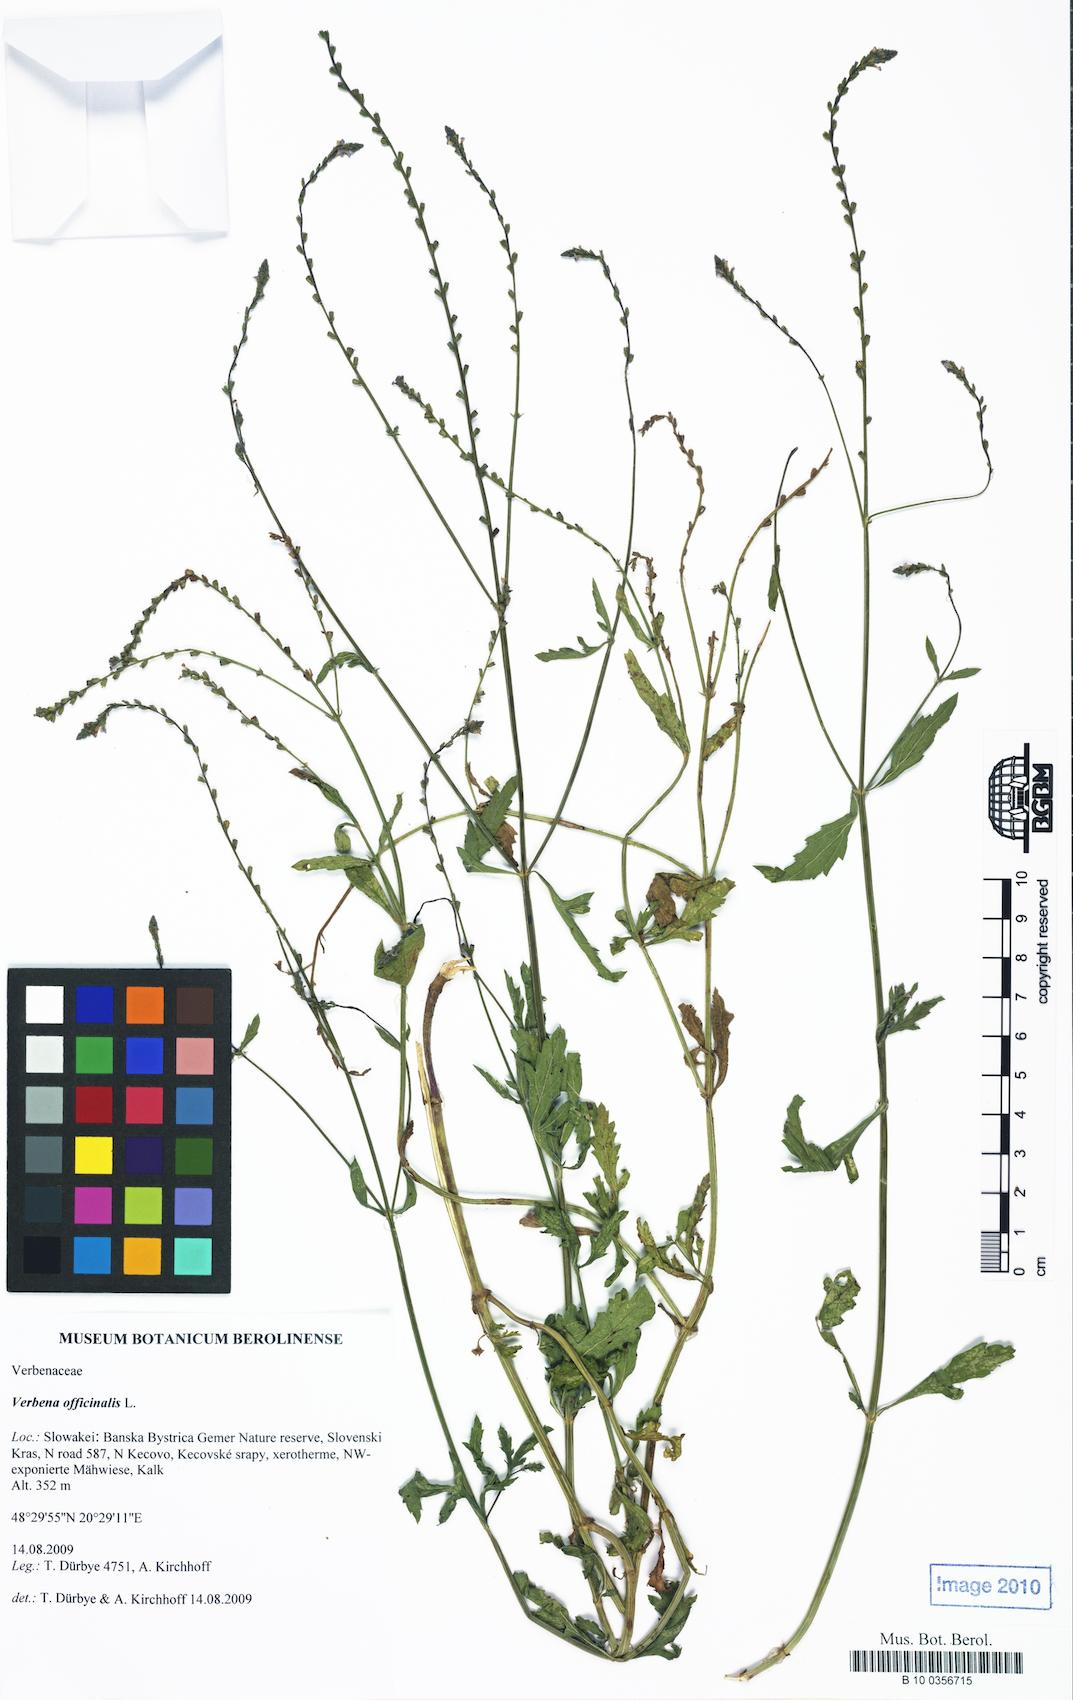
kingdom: Plantae
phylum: Tracheophyta
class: Magnoliopsida
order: Lamiales
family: Verbenaceae
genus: Verbena
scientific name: Verbena officinalis
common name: Vervain
